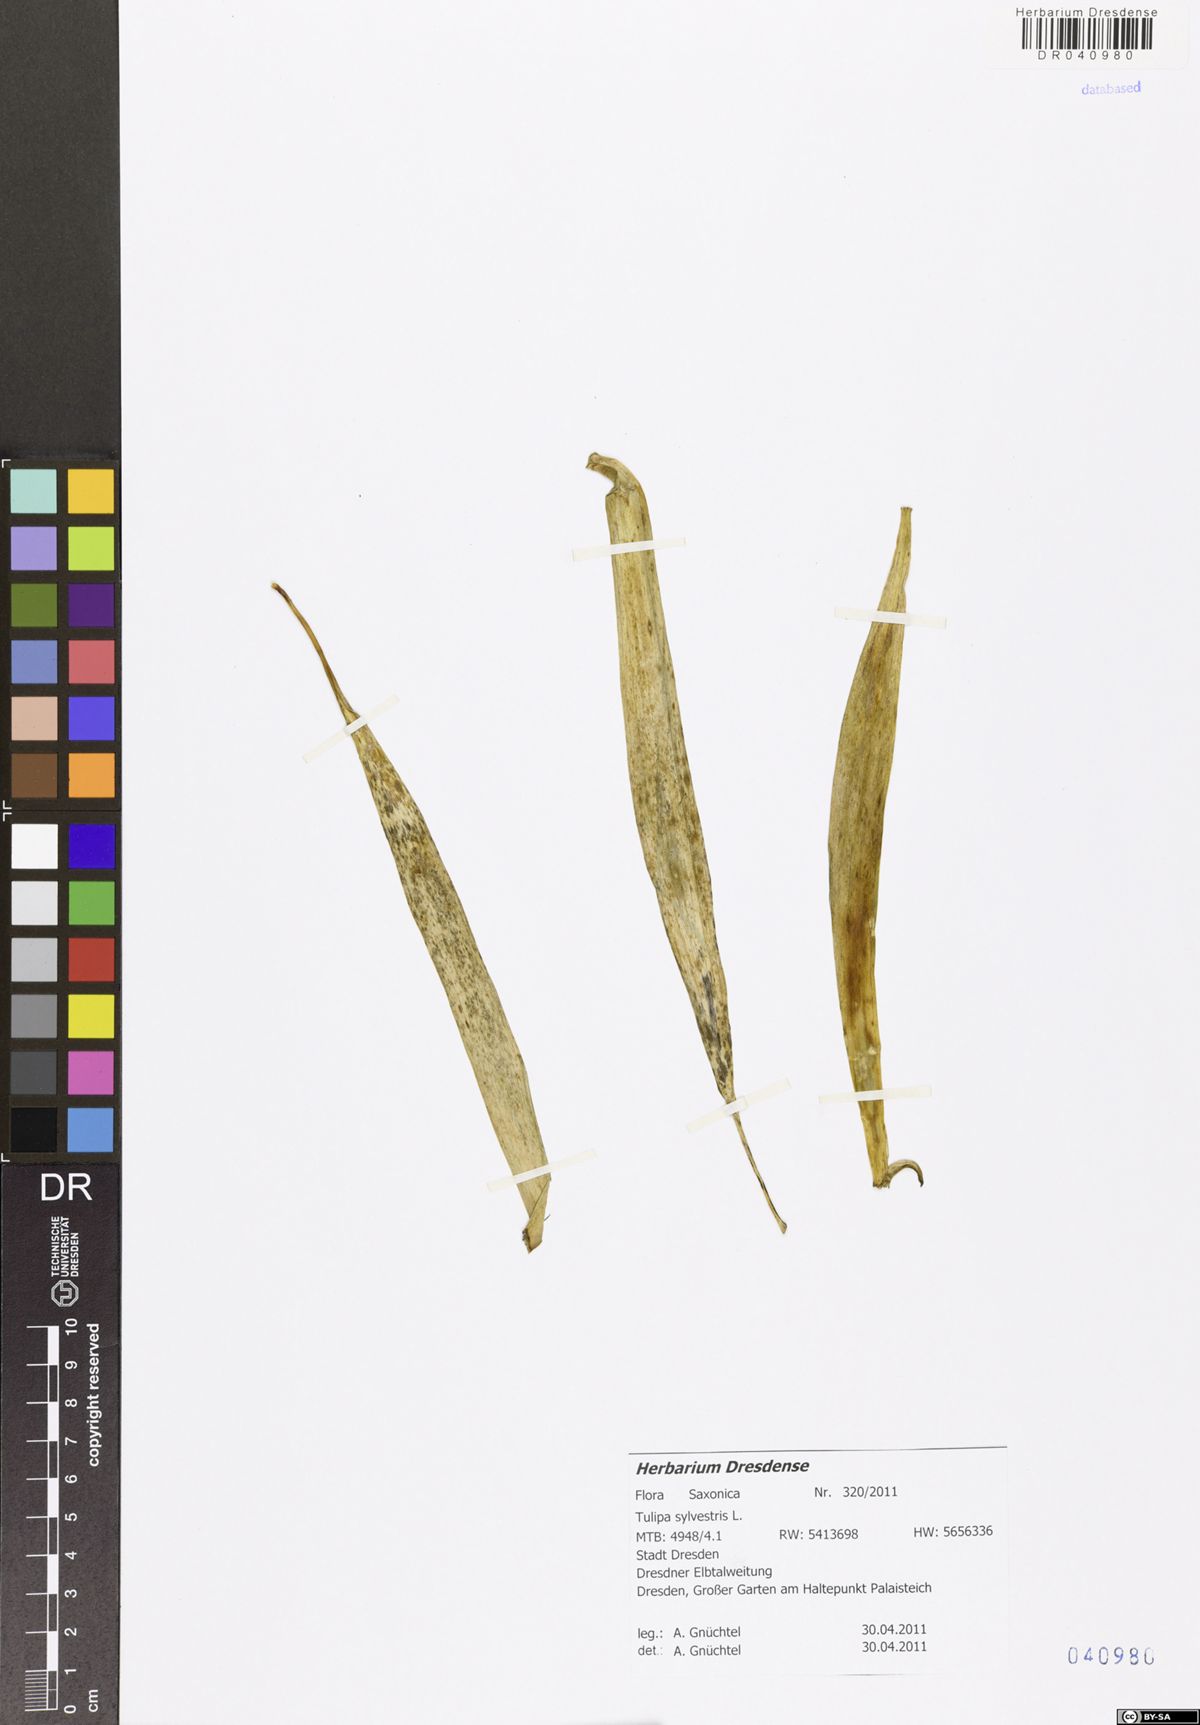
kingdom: Plantae
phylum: Tracheophyta
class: Liliopsida
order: Liliales
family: Liliaceae
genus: Tulipa
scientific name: Tulipa sylvestris
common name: Wild tulip
